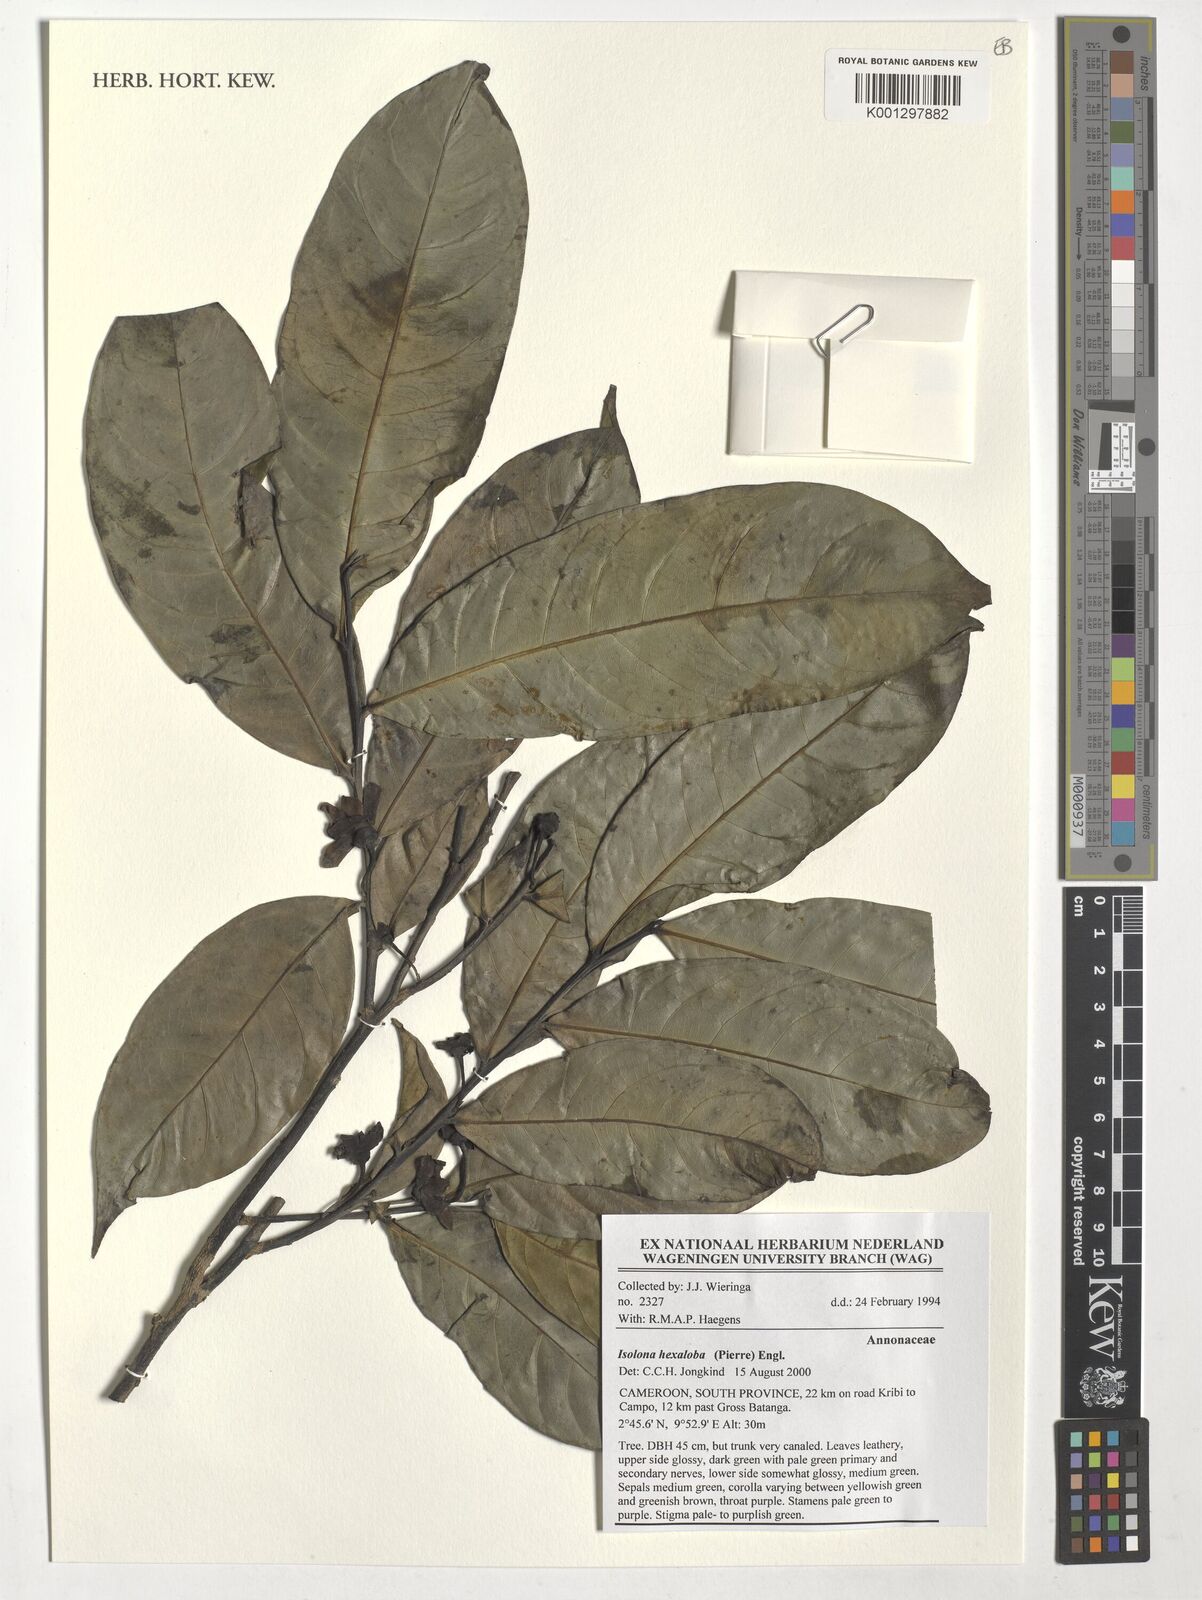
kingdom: Plantae
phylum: Tracheophyta
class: Magnoliopsida
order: Magnoliales
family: Annonaceae
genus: Isolona
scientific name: Isolona hexaloba
